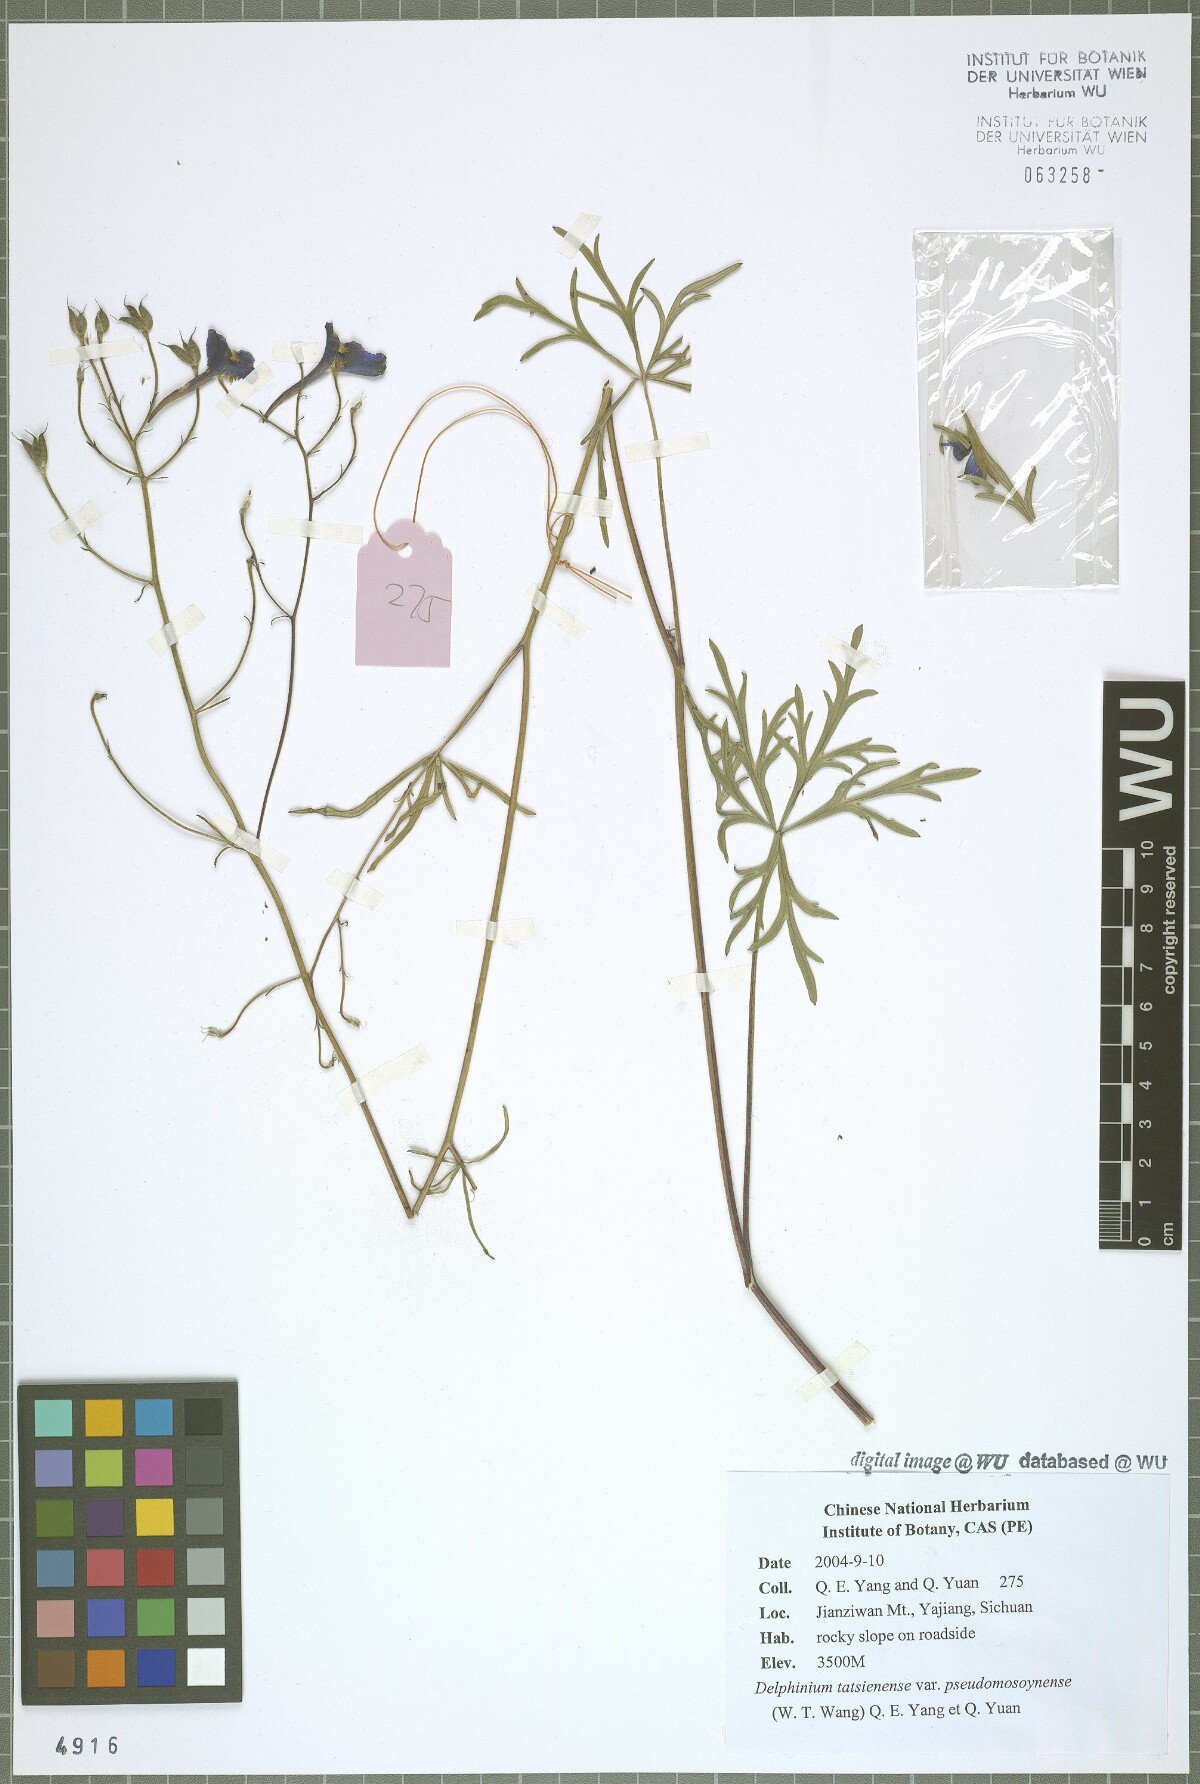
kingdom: Plantae
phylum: Tracheophyta
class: Magnoliopsida
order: Ranunculales
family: Ranunculaceae
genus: Delphinium
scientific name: Delphinium tatsienense
